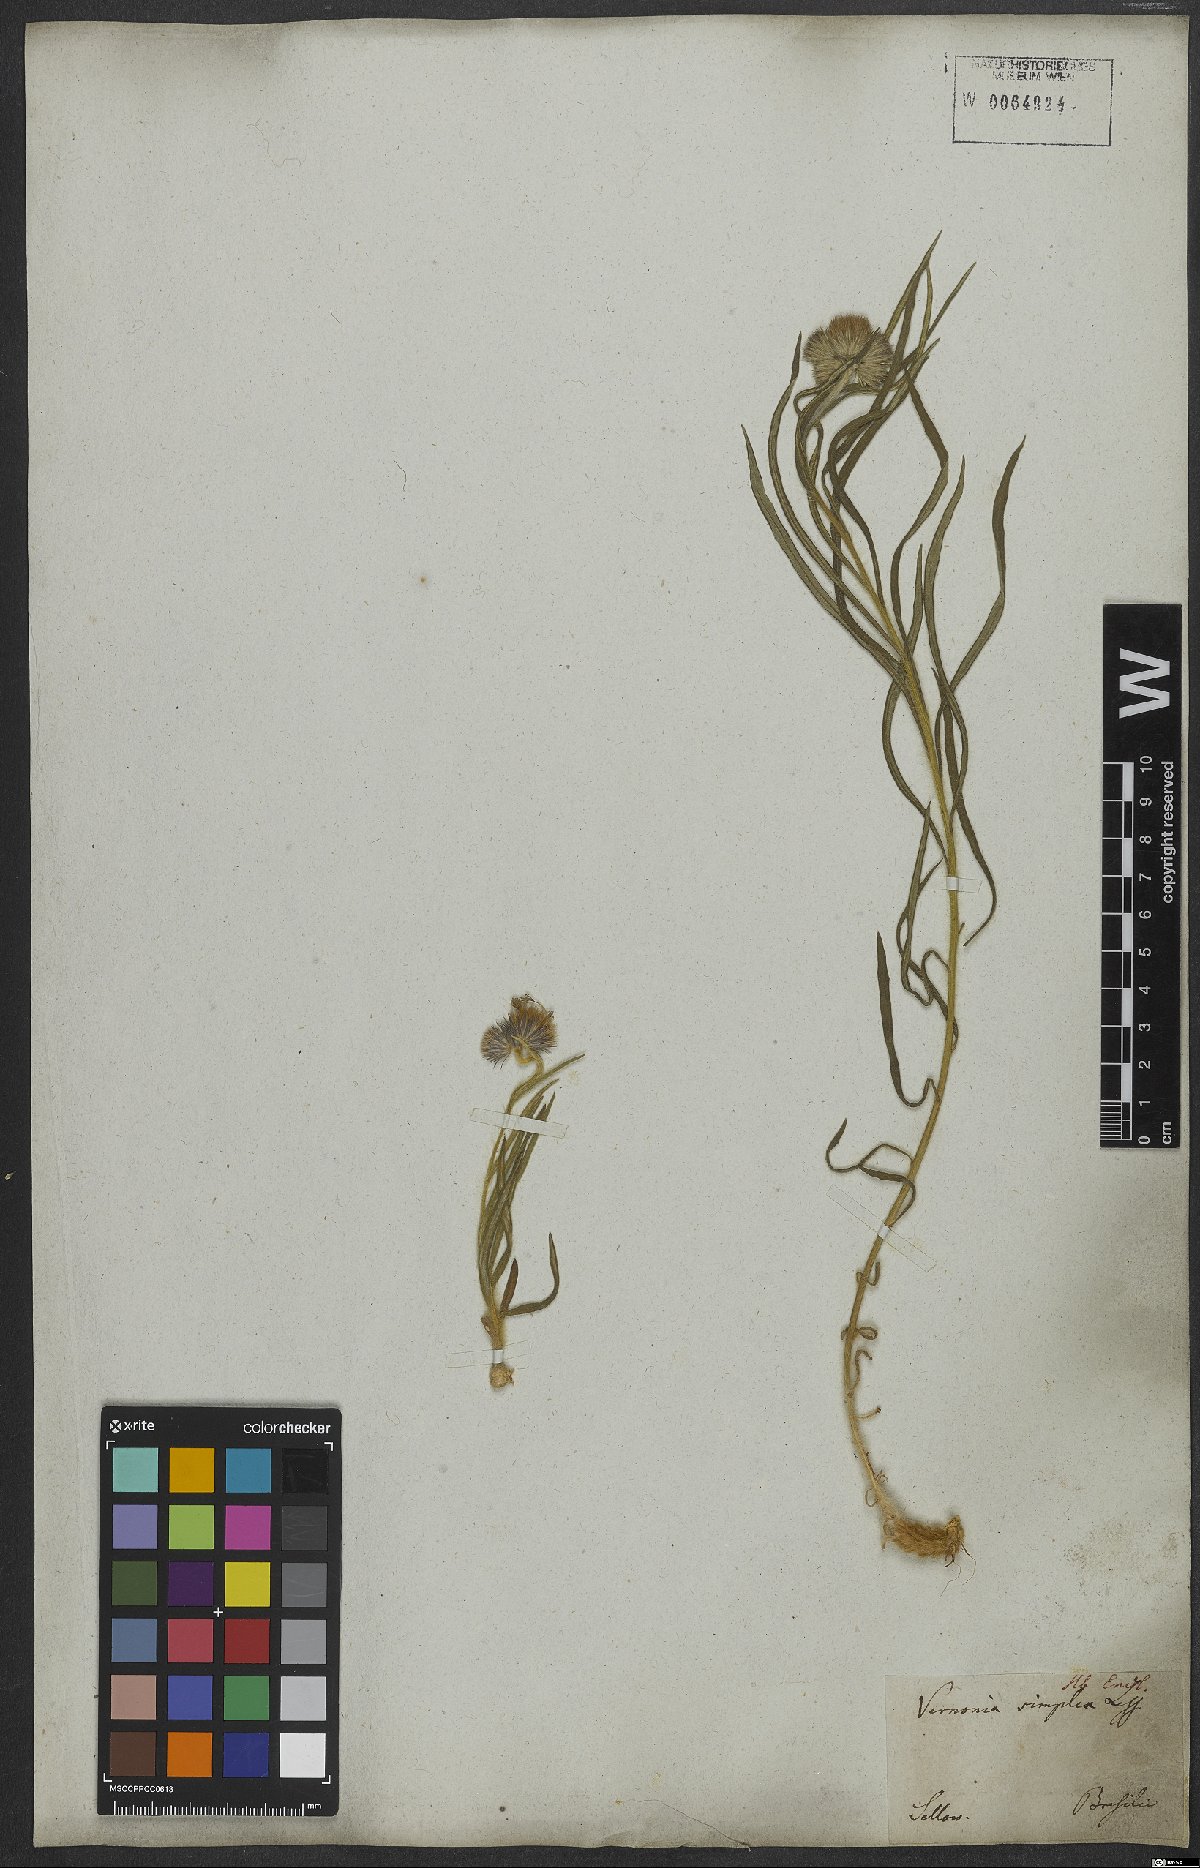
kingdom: Plantae
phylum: Tracheophyta
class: Magnoliopsida
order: Asterales
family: Asteraceae
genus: Chrysolaena
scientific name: Chrysolaena simplex
